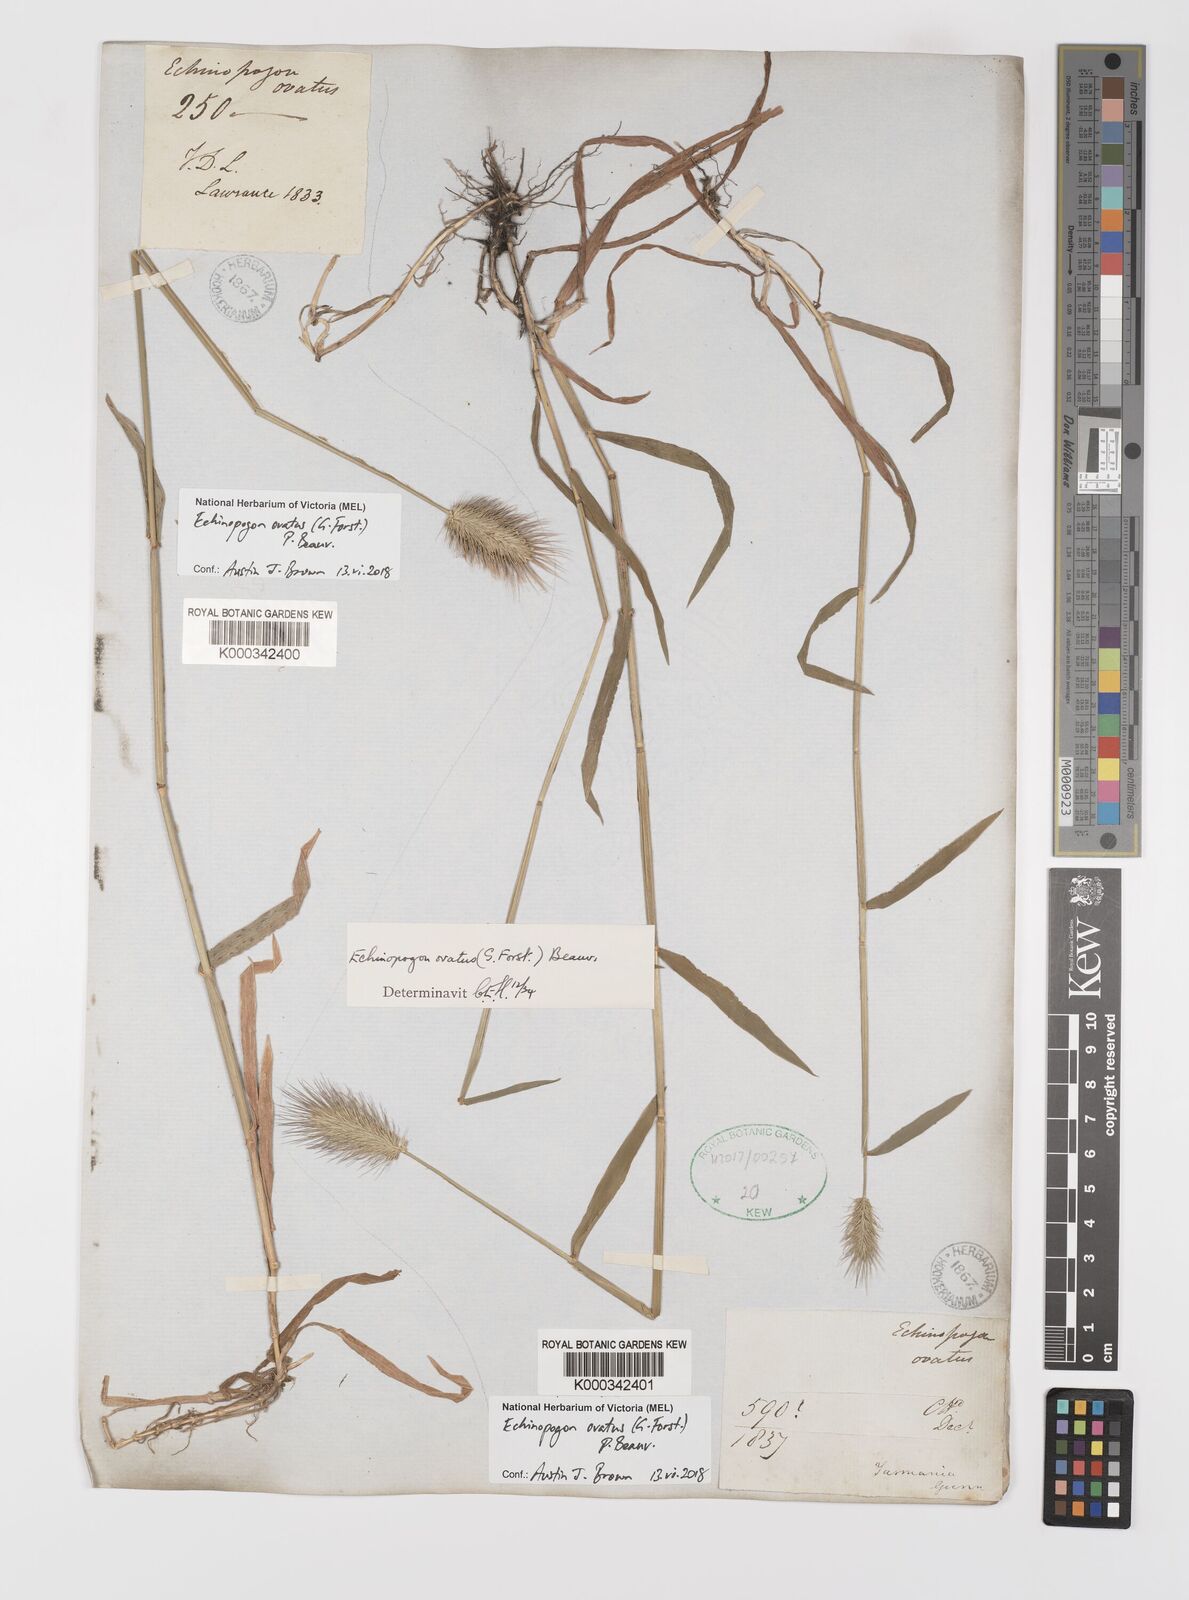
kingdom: Plantae
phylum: Tracheophyta
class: Liliopsida
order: Poales
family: Poaceae
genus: Echinopogon
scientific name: Echinopogon ovatus
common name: Hedgehog-grass
